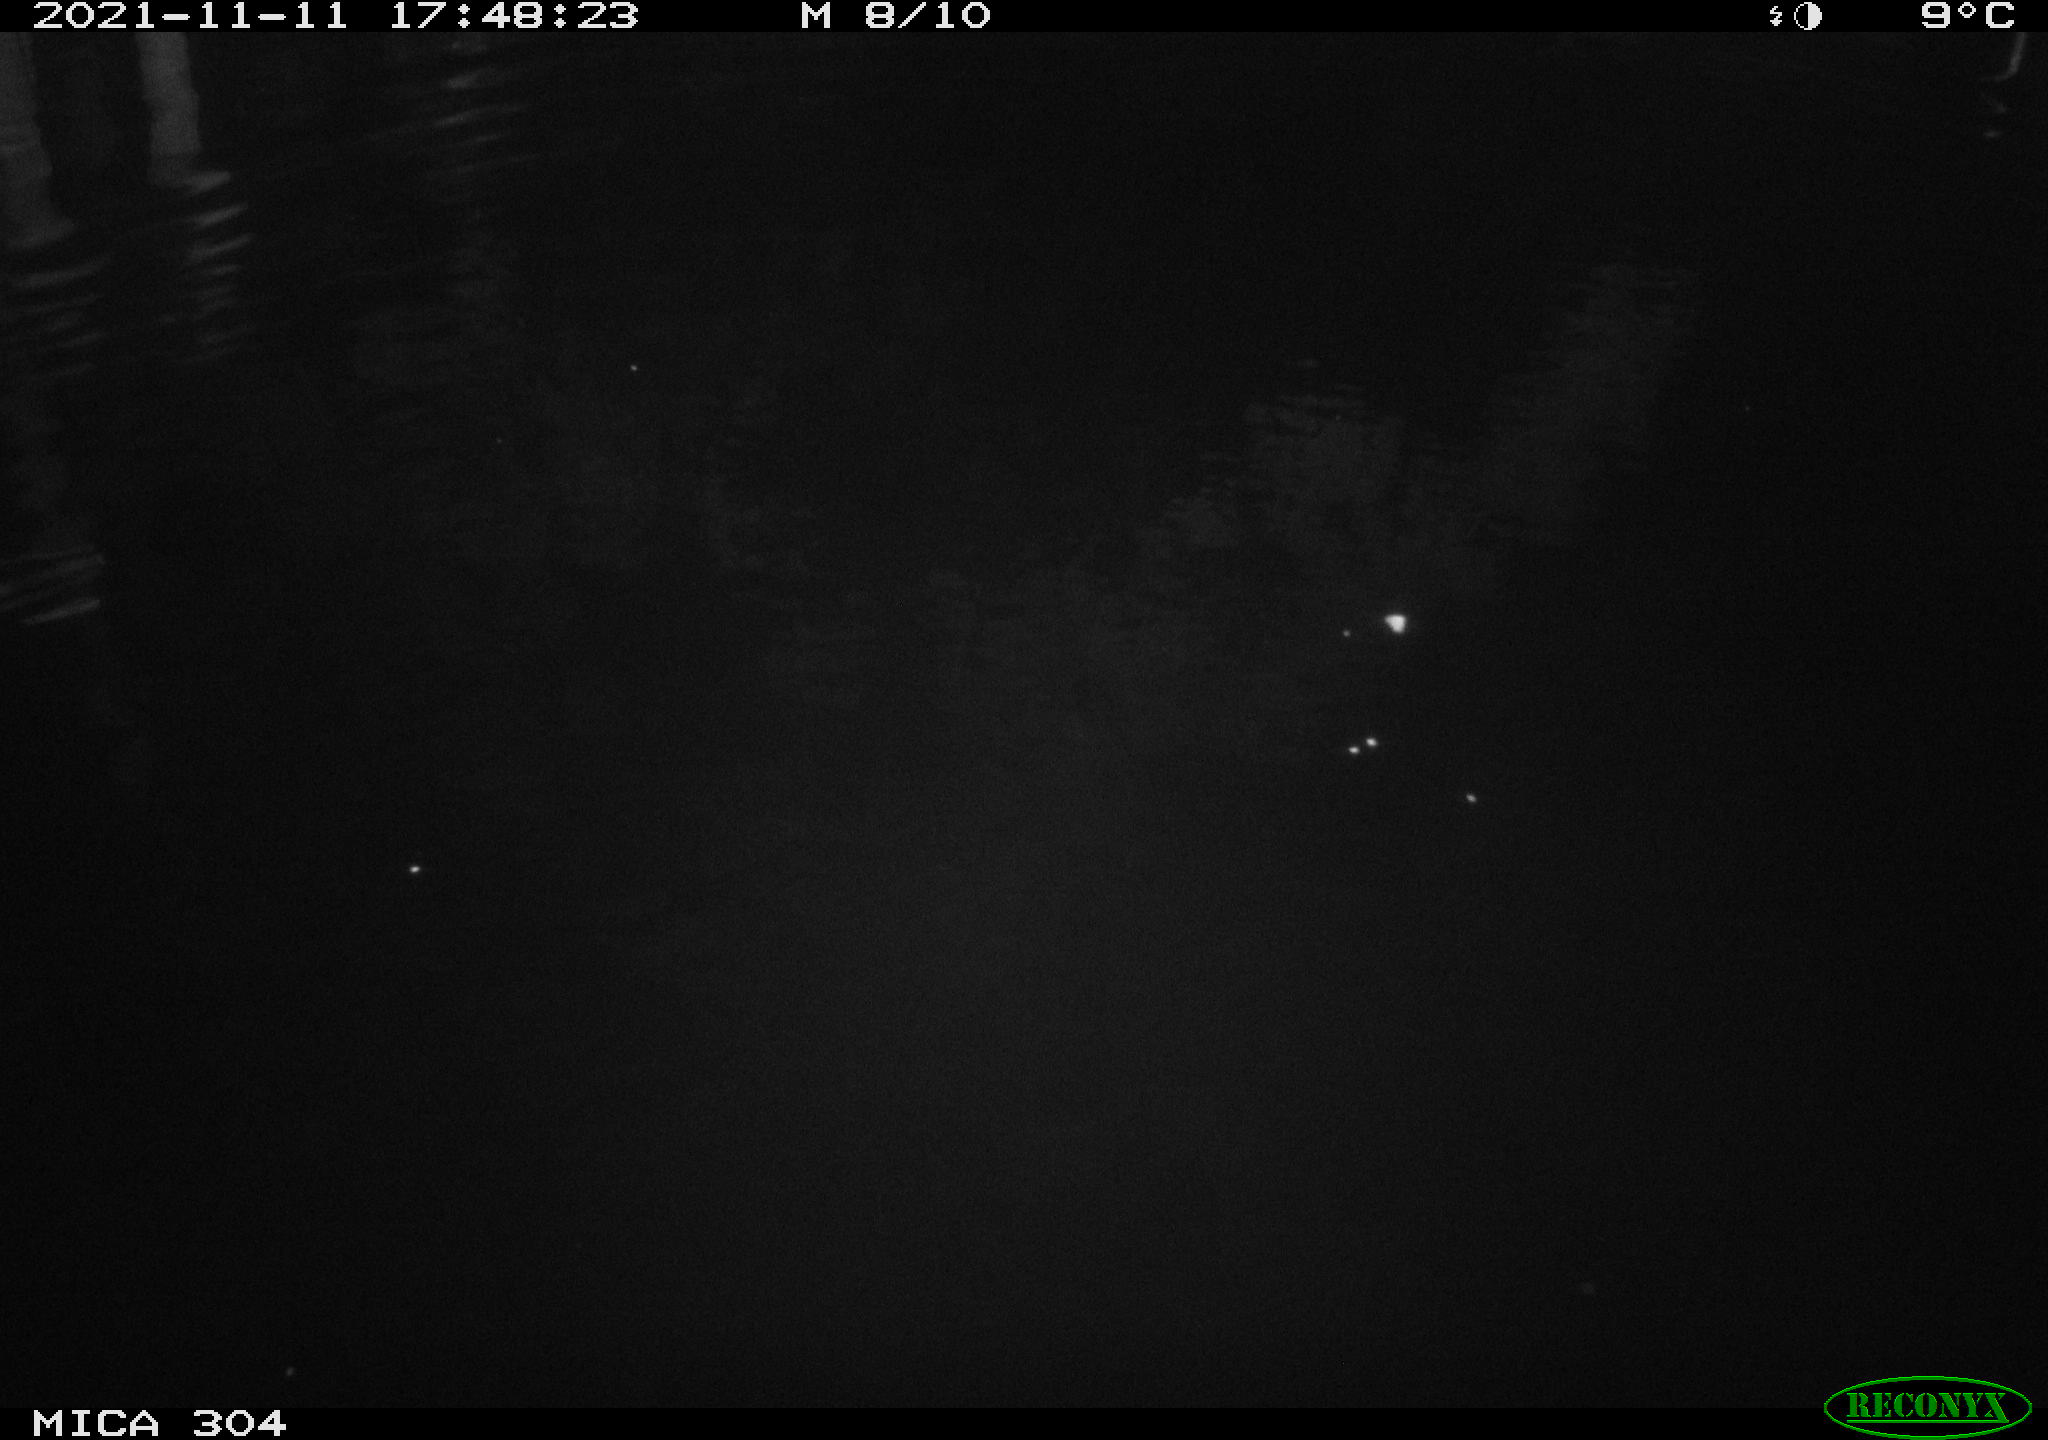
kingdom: Animalia
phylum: Chordata
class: Aves
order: Anseriformes
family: Anatidae
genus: Anas
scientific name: Anas platyrhynchos
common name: Mallard
